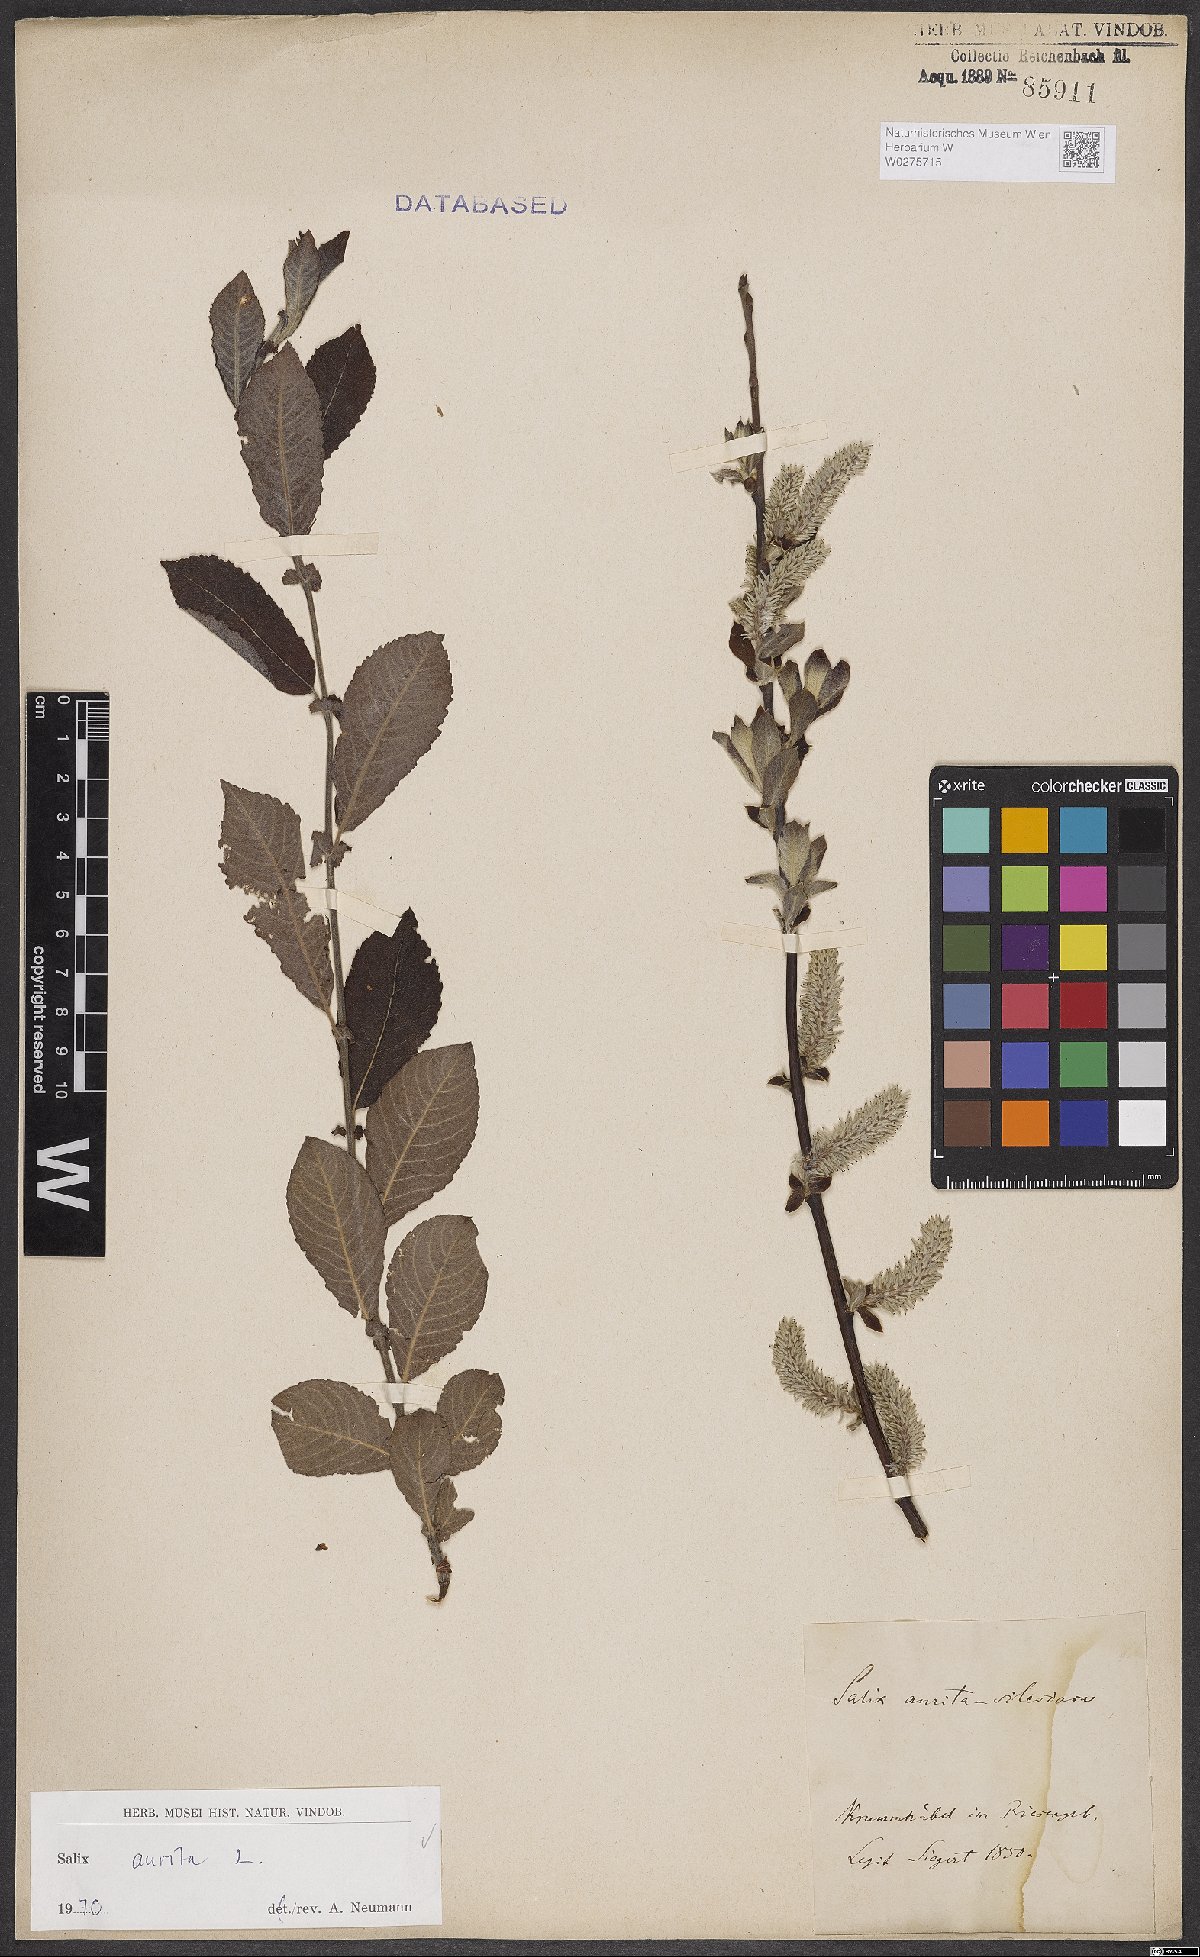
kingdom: Plantae
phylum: Tracheophyta
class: Magnoliopsida
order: Malpighiales
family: Salicaceae
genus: Salix
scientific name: Salix aurita
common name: Eared willow
